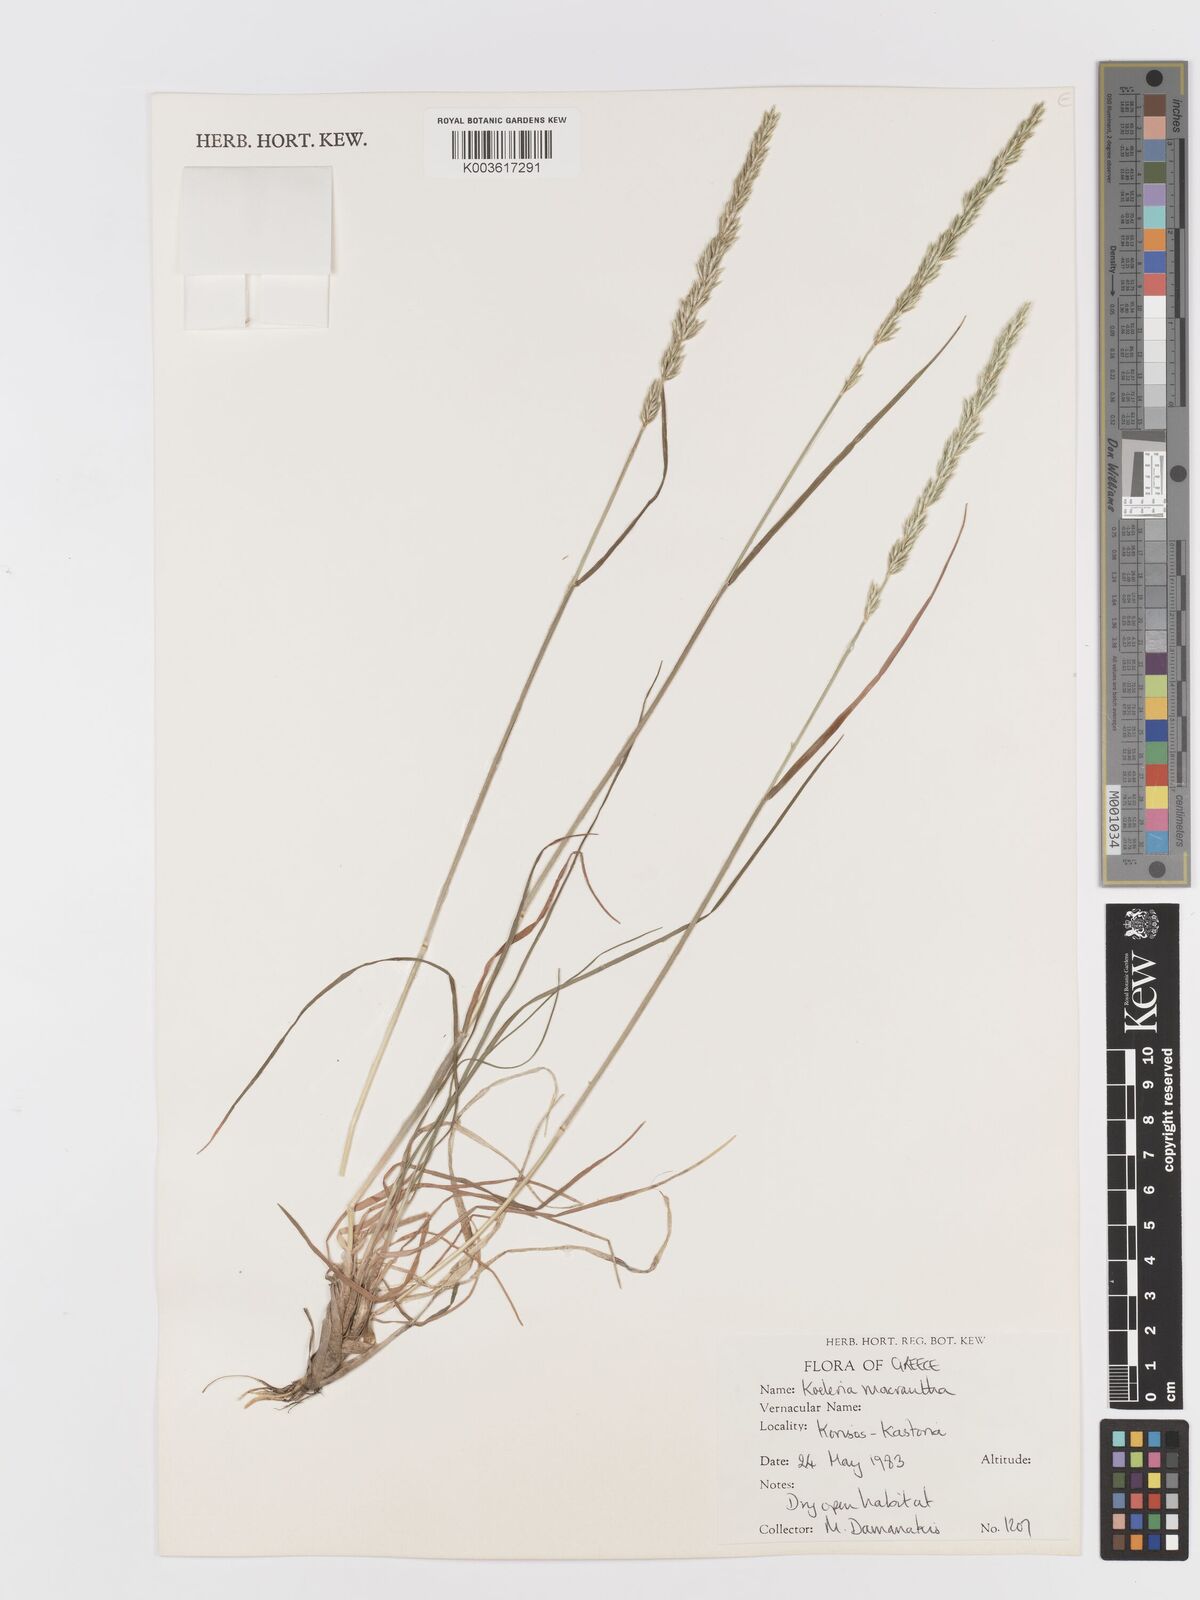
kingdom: Plantae
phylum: Tracheophyta
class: Liliopsida
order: Poales
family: Poaceae
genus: Koeleria
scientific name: Koeleria macrantha
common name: Crested hair-grass
